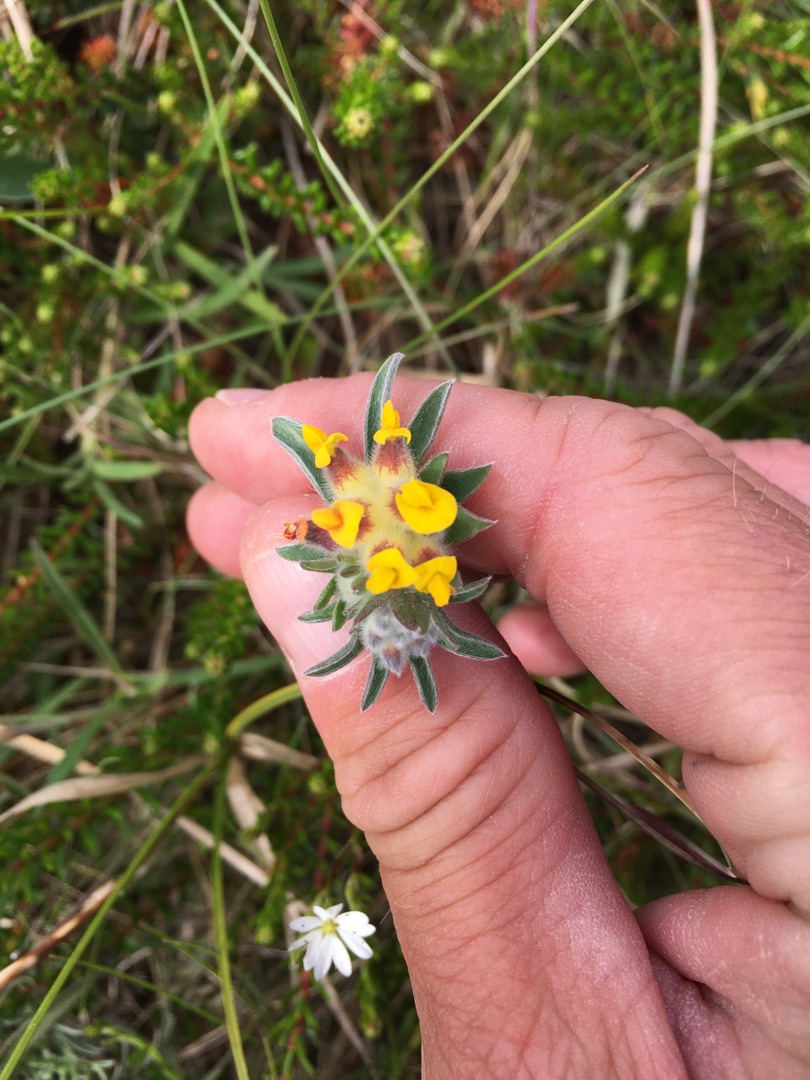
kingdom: Plantae
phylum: Tracheophyta
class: Magnoliopsida
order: Fabales
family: Fabaceae
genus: Anthyllis
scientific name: Anthyllis vulneraria
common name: Rundbælg
